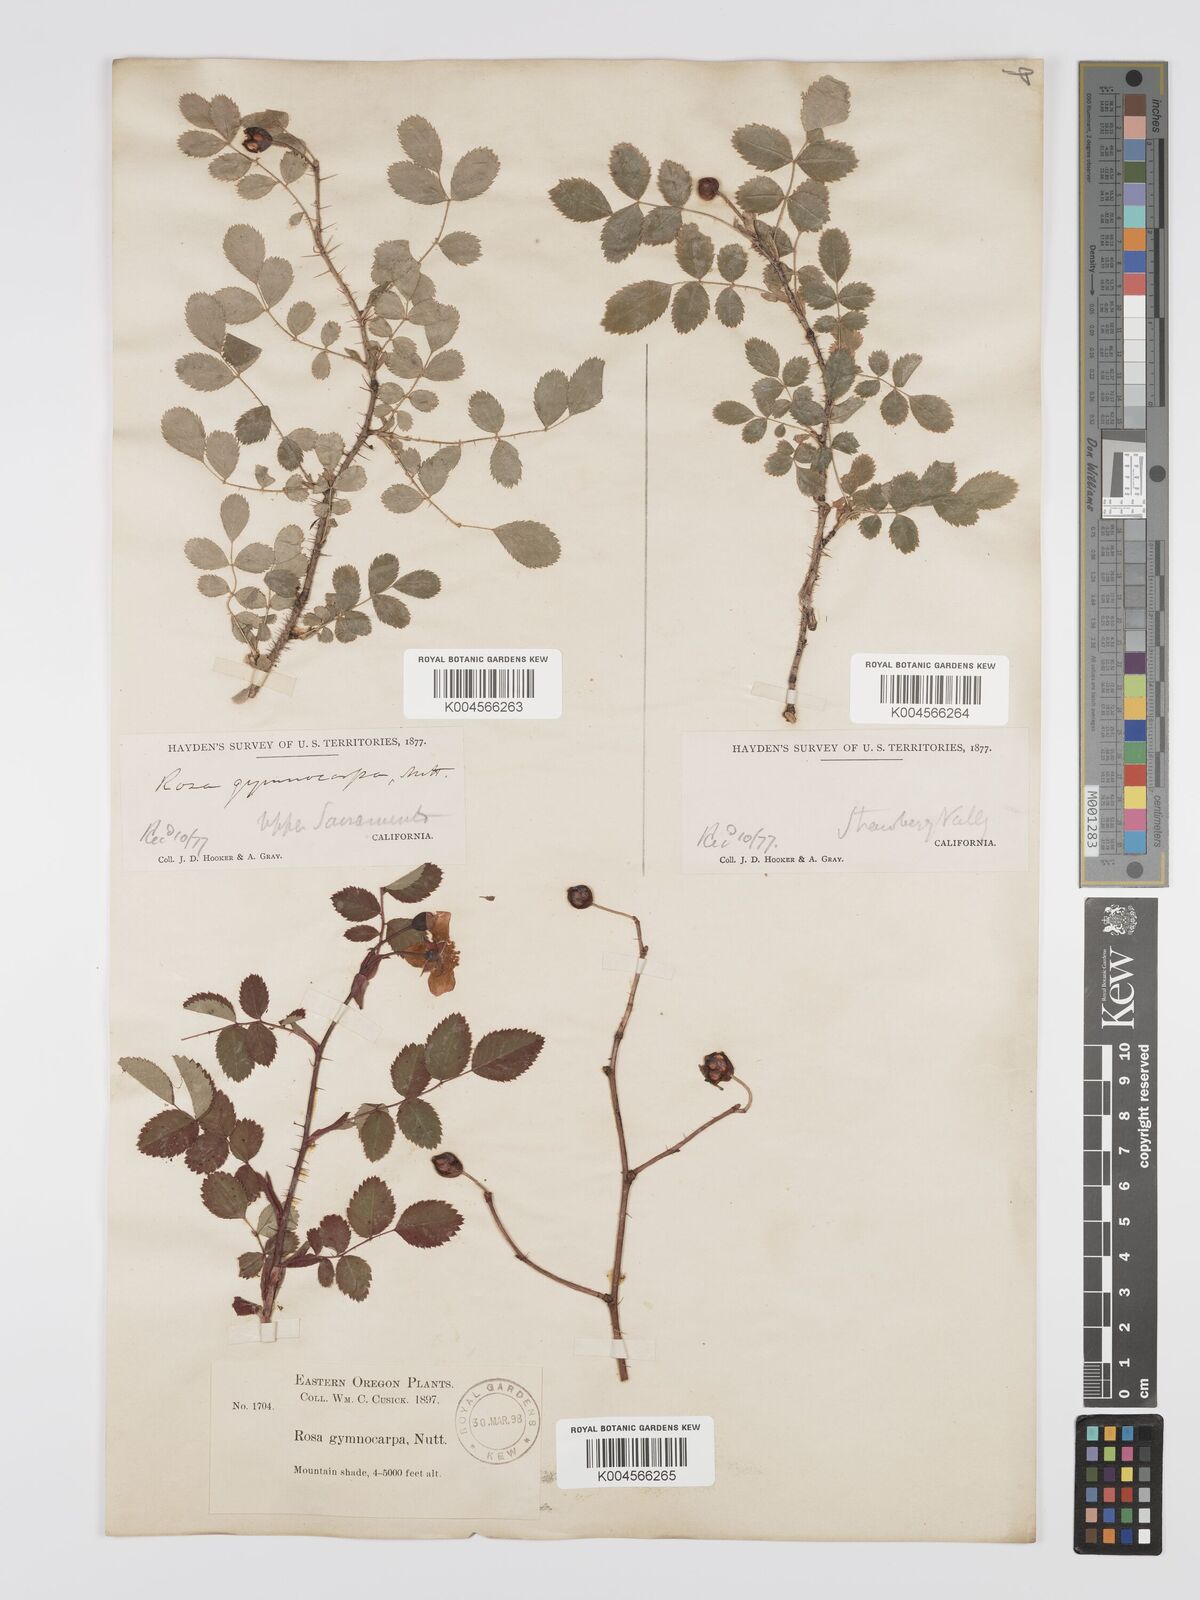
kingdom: Plantae
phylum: Tracheophyta
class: Magnoliopsida
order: Rosales
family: Rosaceae
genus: Rosa
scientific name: Rosa gymnocarpa
